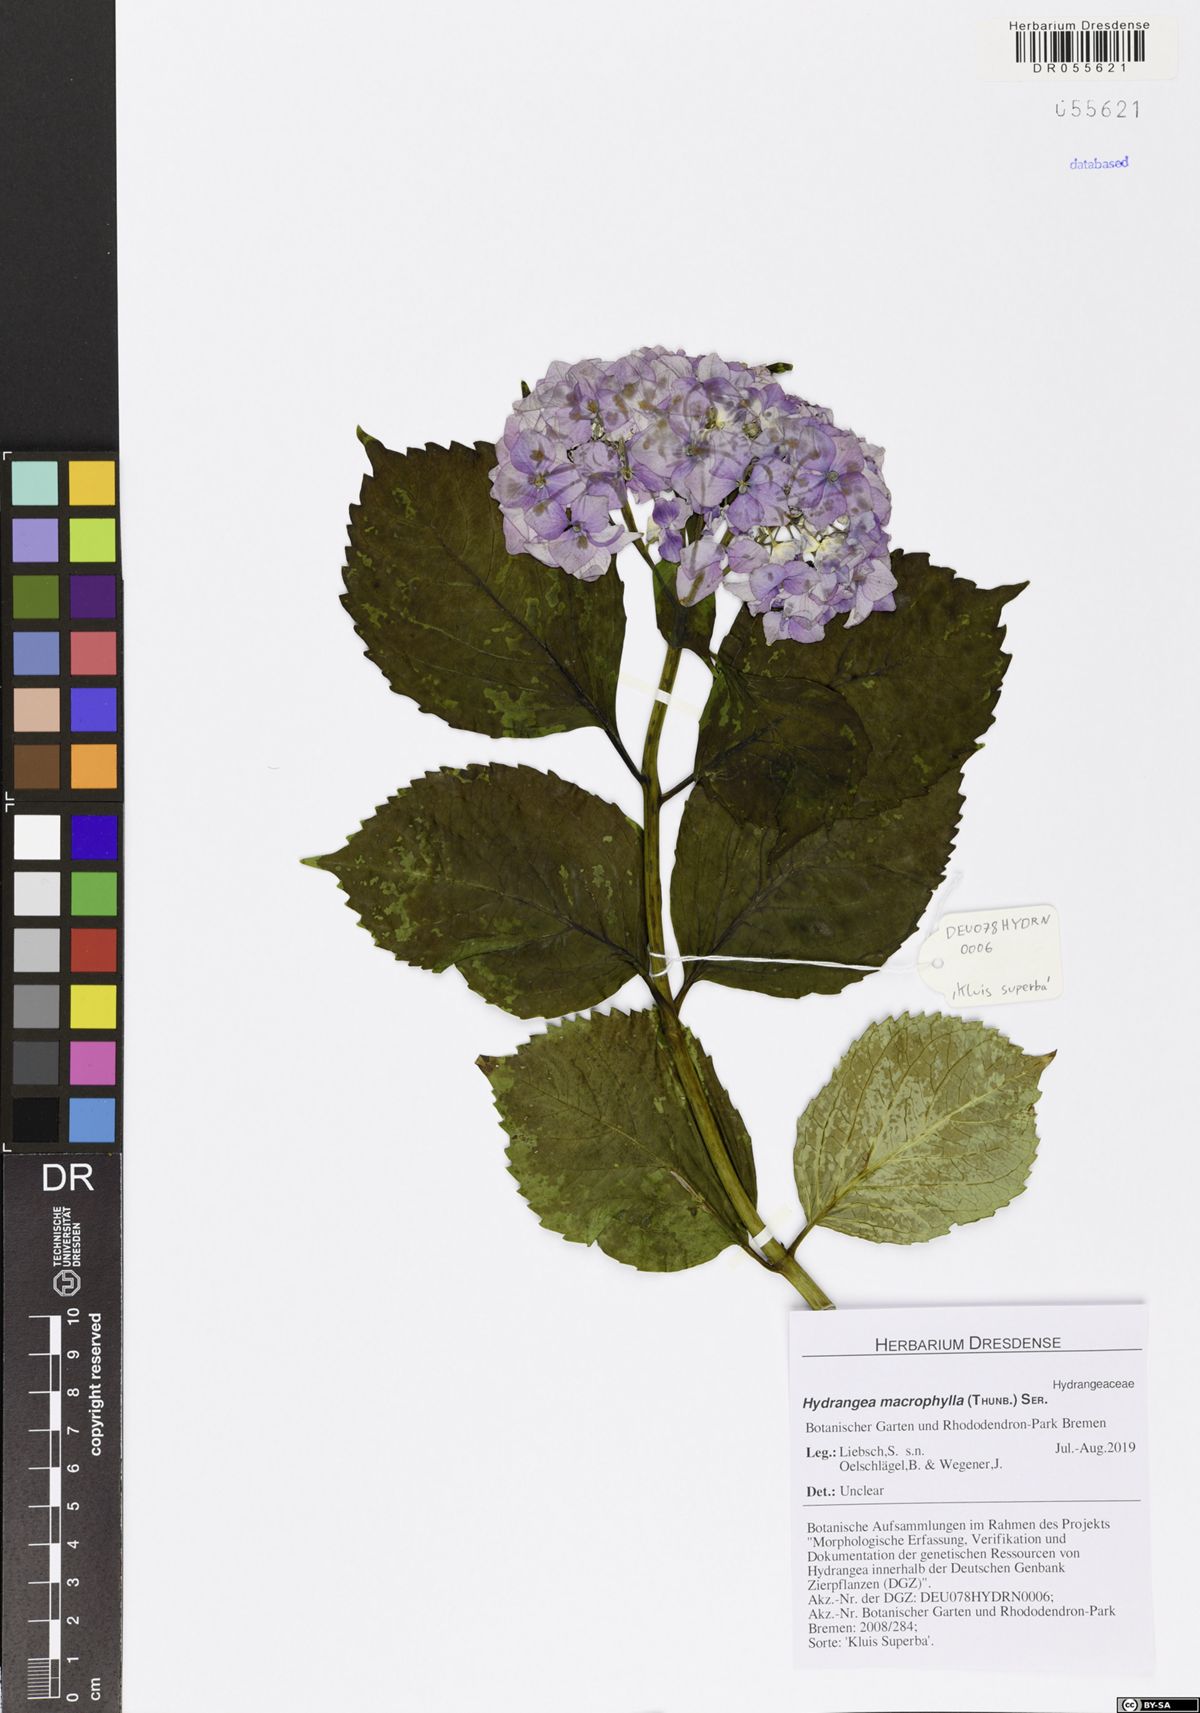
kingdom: Plantae
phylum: Tracheophyta
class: Magnoliopsida
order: Cornales
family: Hydrangeaceae
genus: Hydrangea
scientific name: Hydrangea macrophylla
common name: Hydrangea
